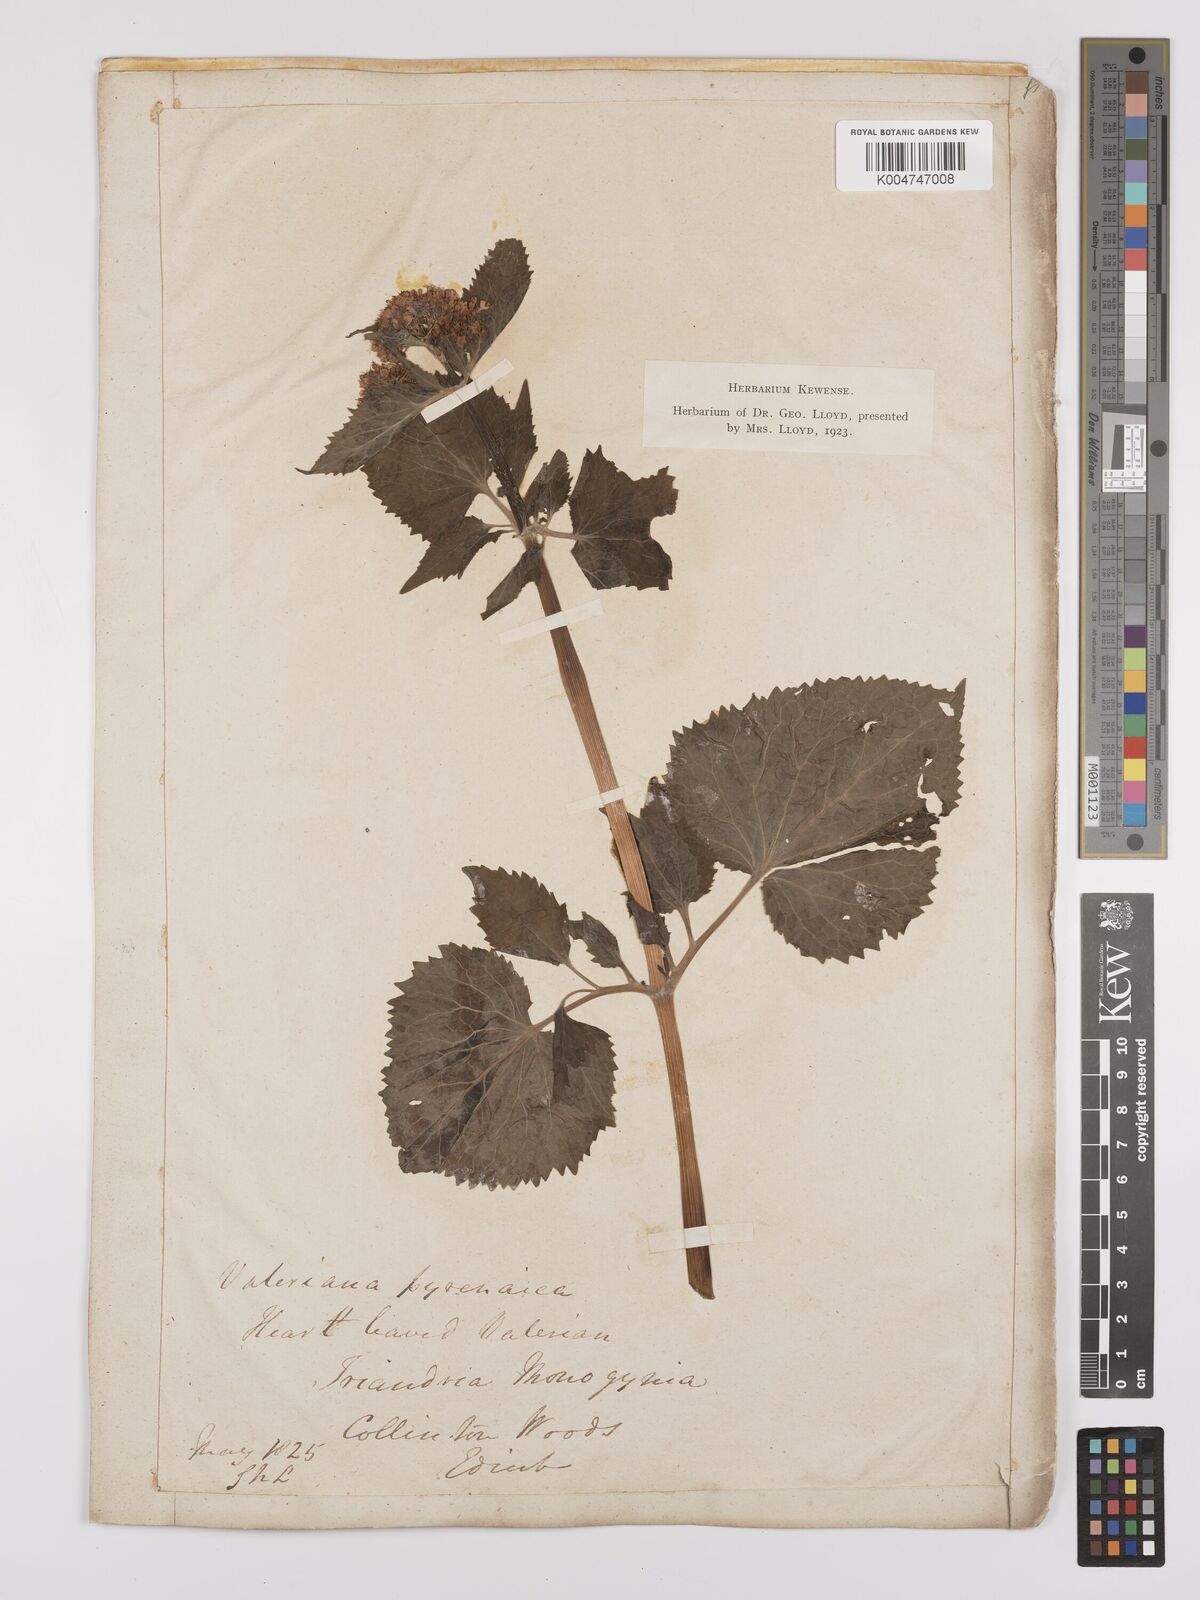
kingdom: Plantae
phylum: Tracheophyta
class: Magnoliopsida
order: Dipsacales
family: Caprifoliaceae
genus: Valeriana
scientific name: Valeriana pyrenaica
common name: Pyrenean valerian
